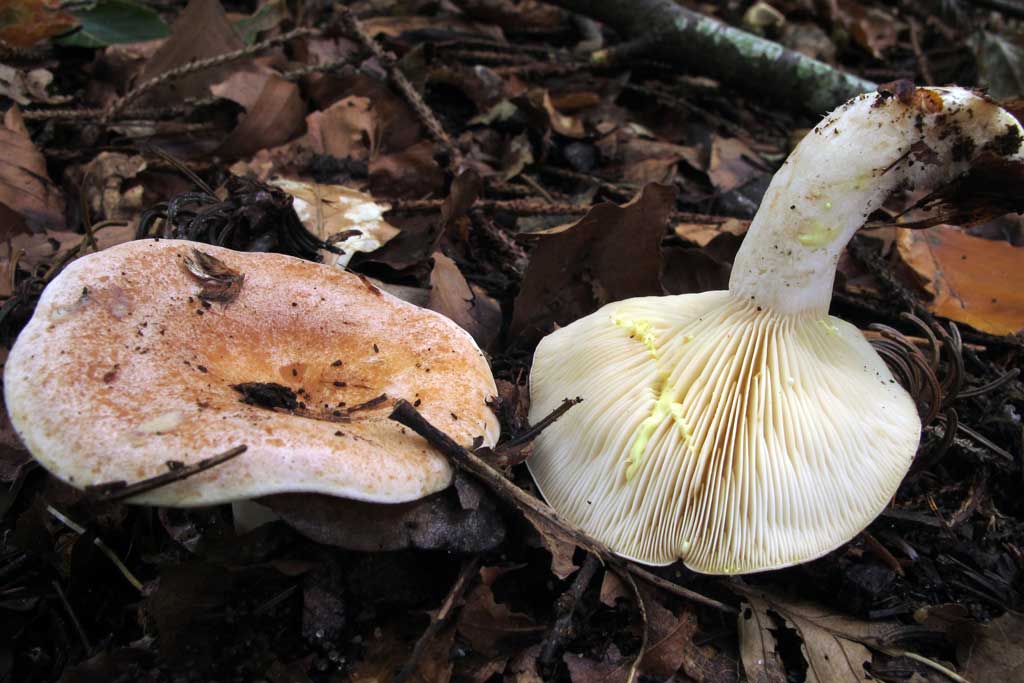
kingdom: Fungi
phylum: Basidiomycota
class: Agaricomycetes
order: Russulales
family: Russulaceae
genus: Lactarius
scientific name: Lactarius chrysorrheus
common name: svovlmælket mælkehat
